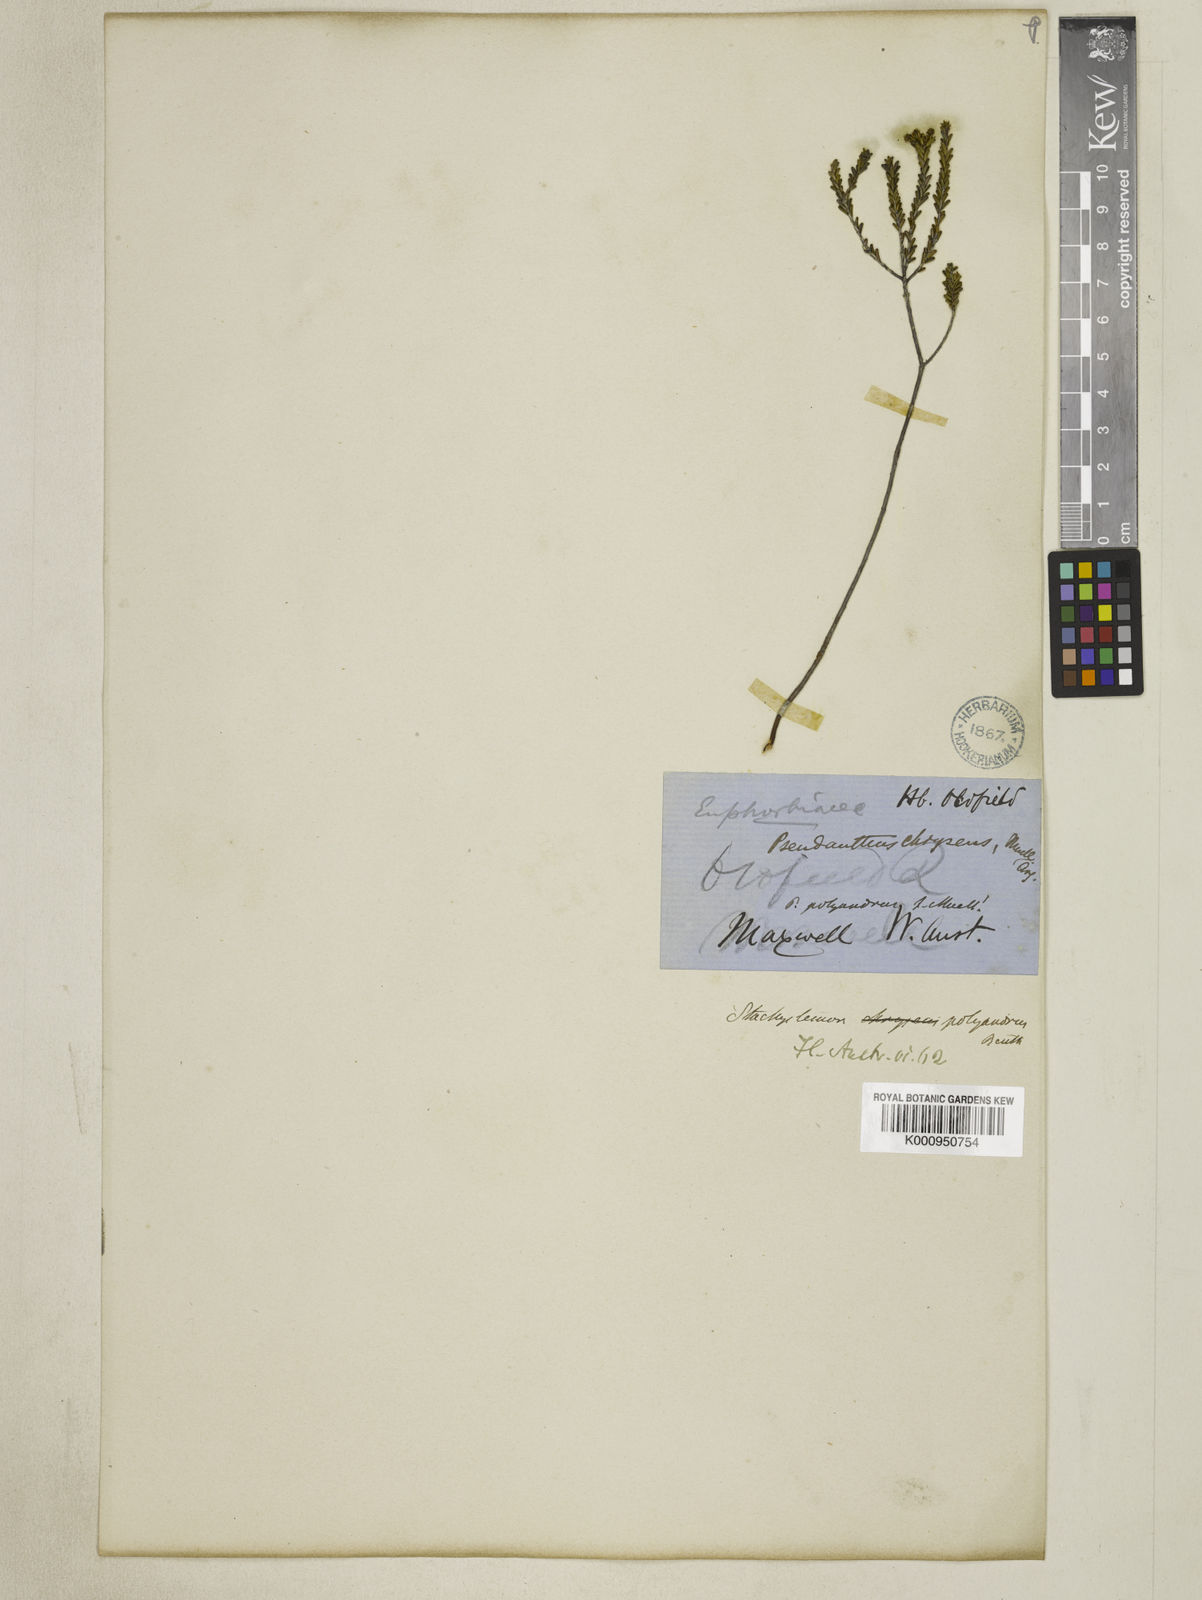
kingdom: Plantae
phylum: Tracheophyta
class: Magnoliopsida
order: Malpighiales
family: Picrodendraceae
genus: Stachystemon
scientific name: Stachystemon polyandrus
